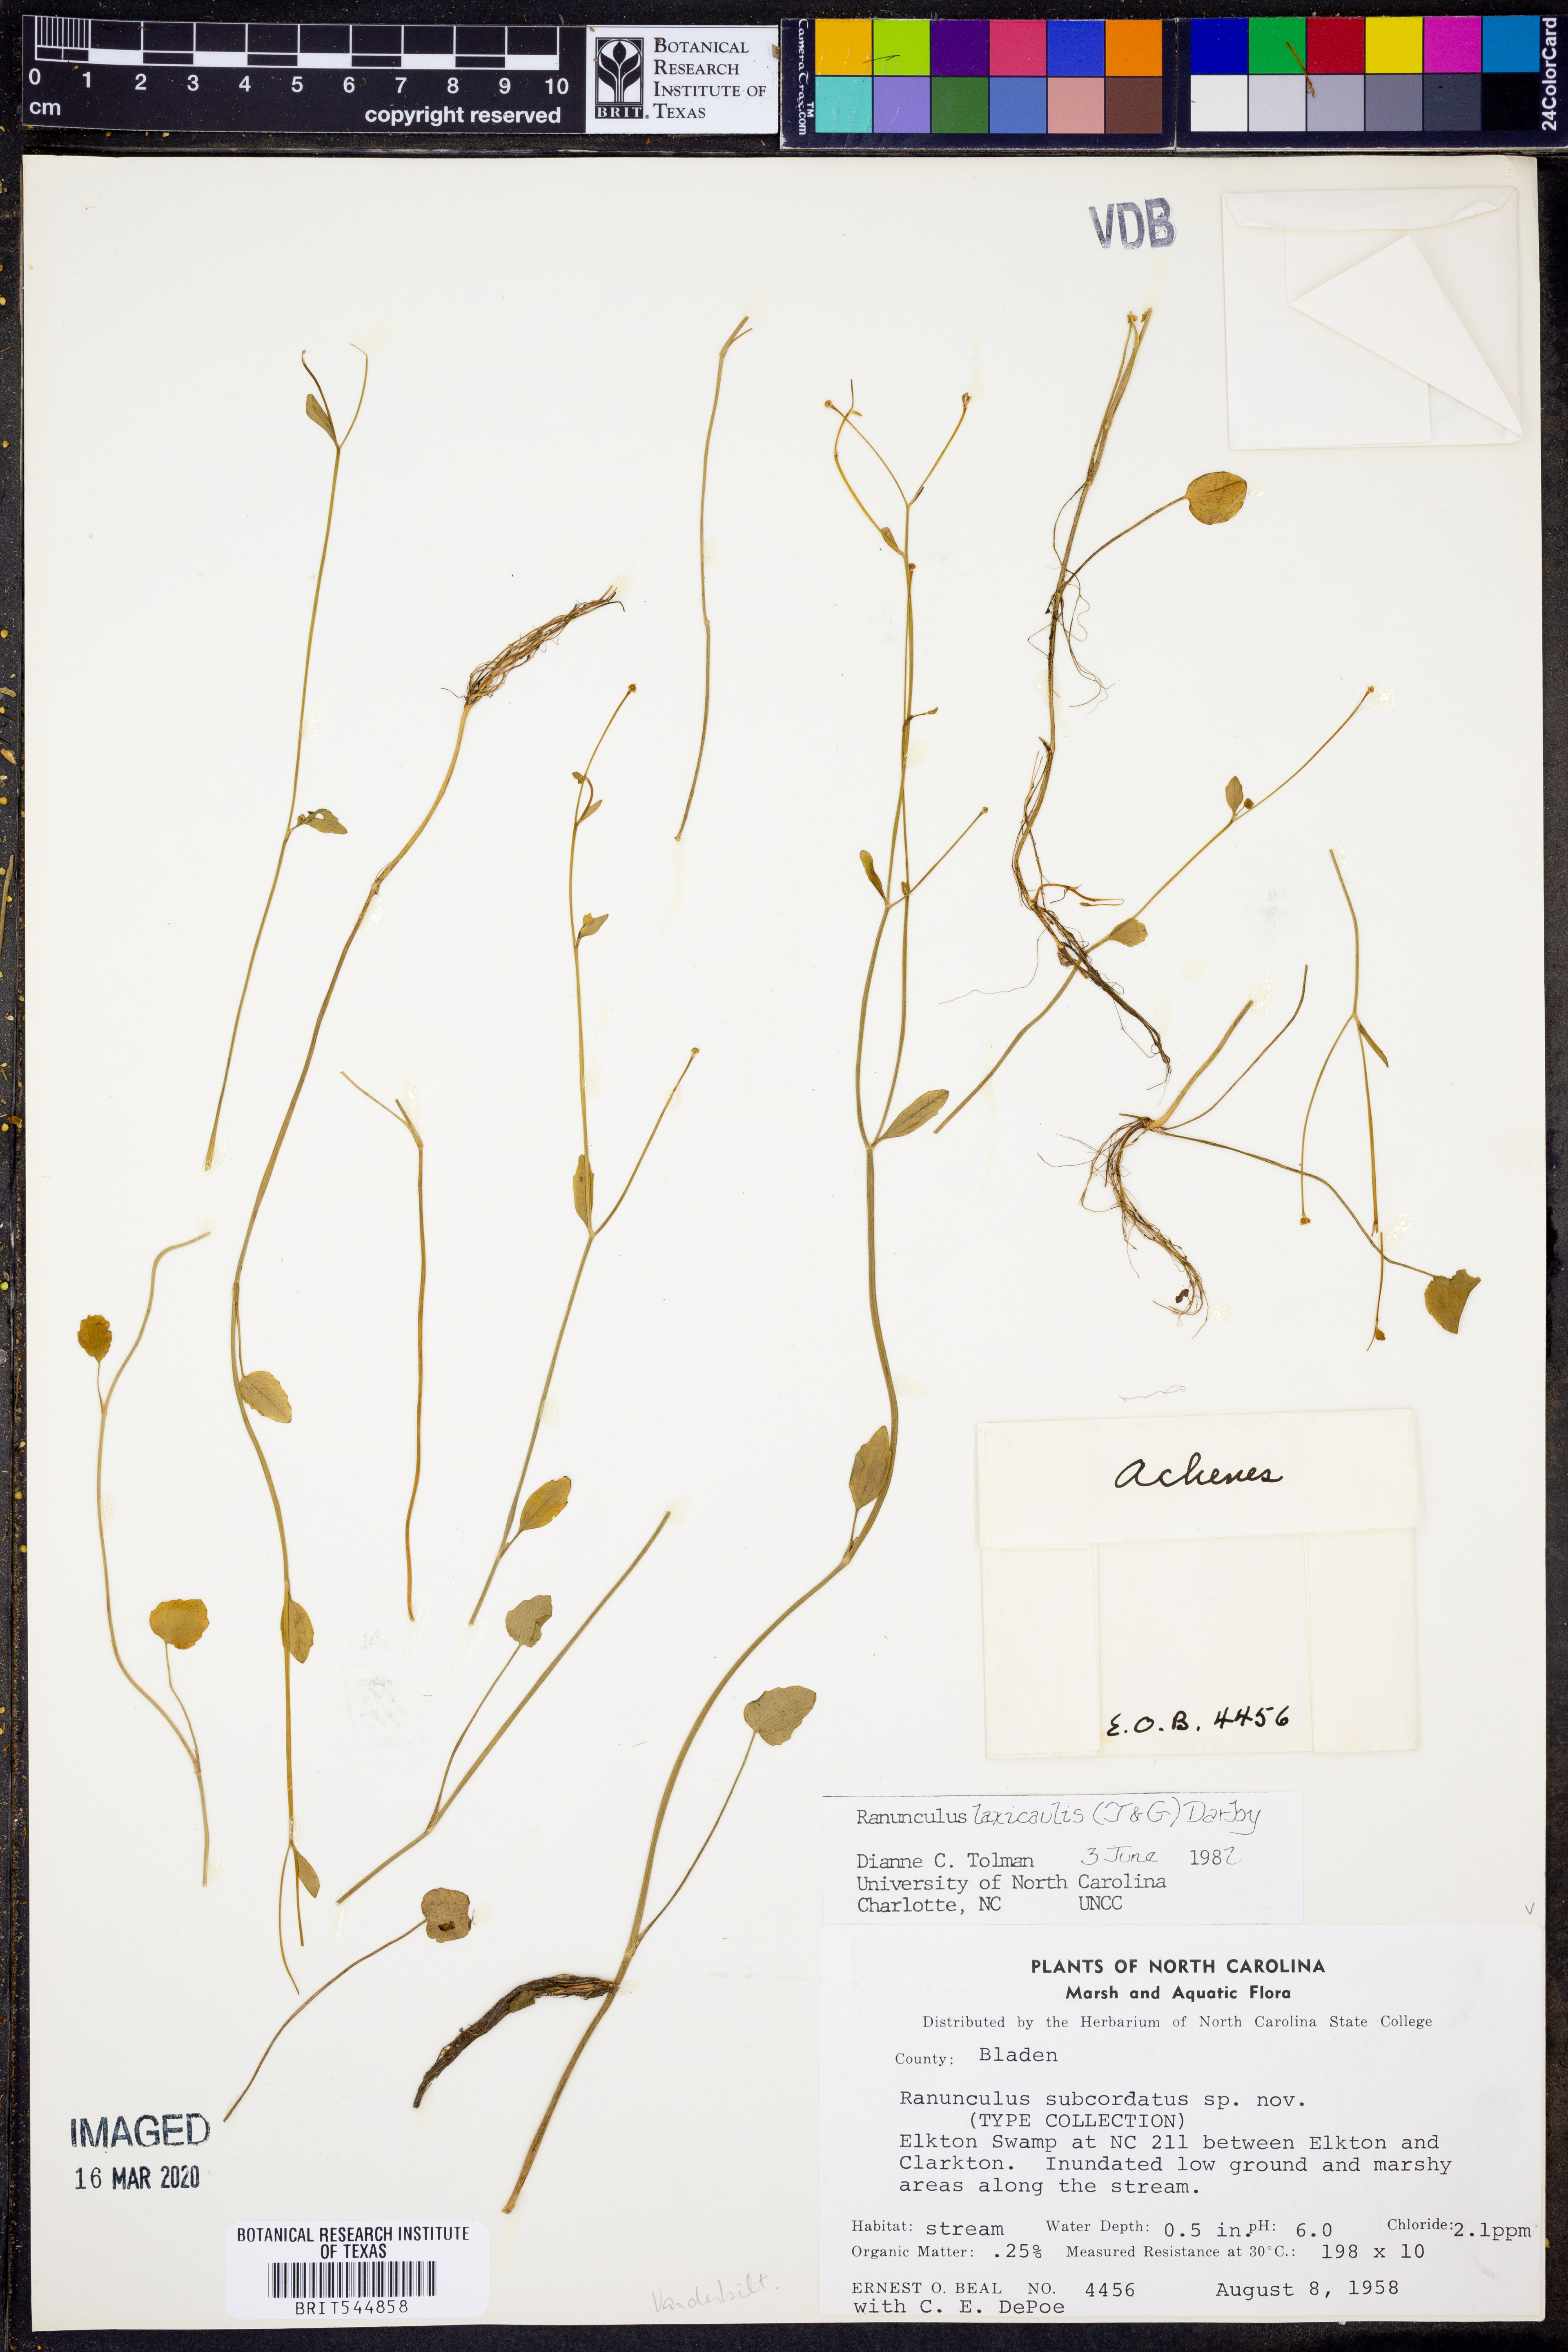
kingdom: Plantae
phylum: Tracheophyta
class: Magnoliopsida
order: Ranunculales
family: Ranunculaceae
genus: Ranunculus
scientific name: Ranunculus laxicaulis
